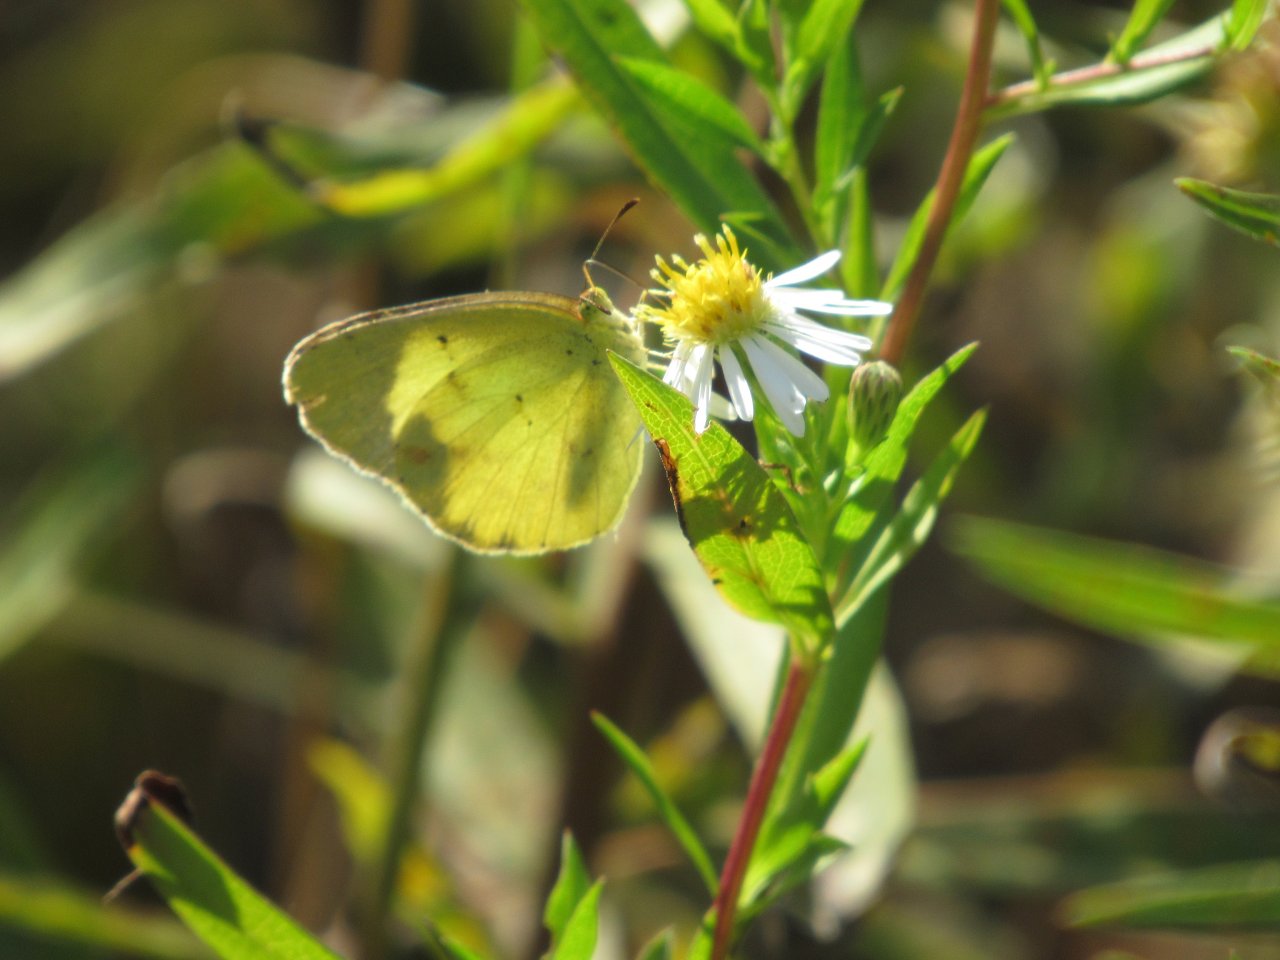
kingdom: Animalia
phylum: Arthropoda
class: Insecta
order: Lepidoptera
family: Pieridae
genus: Pyrisitia
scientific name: Pyrisitia lisa
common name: Little Yellow
